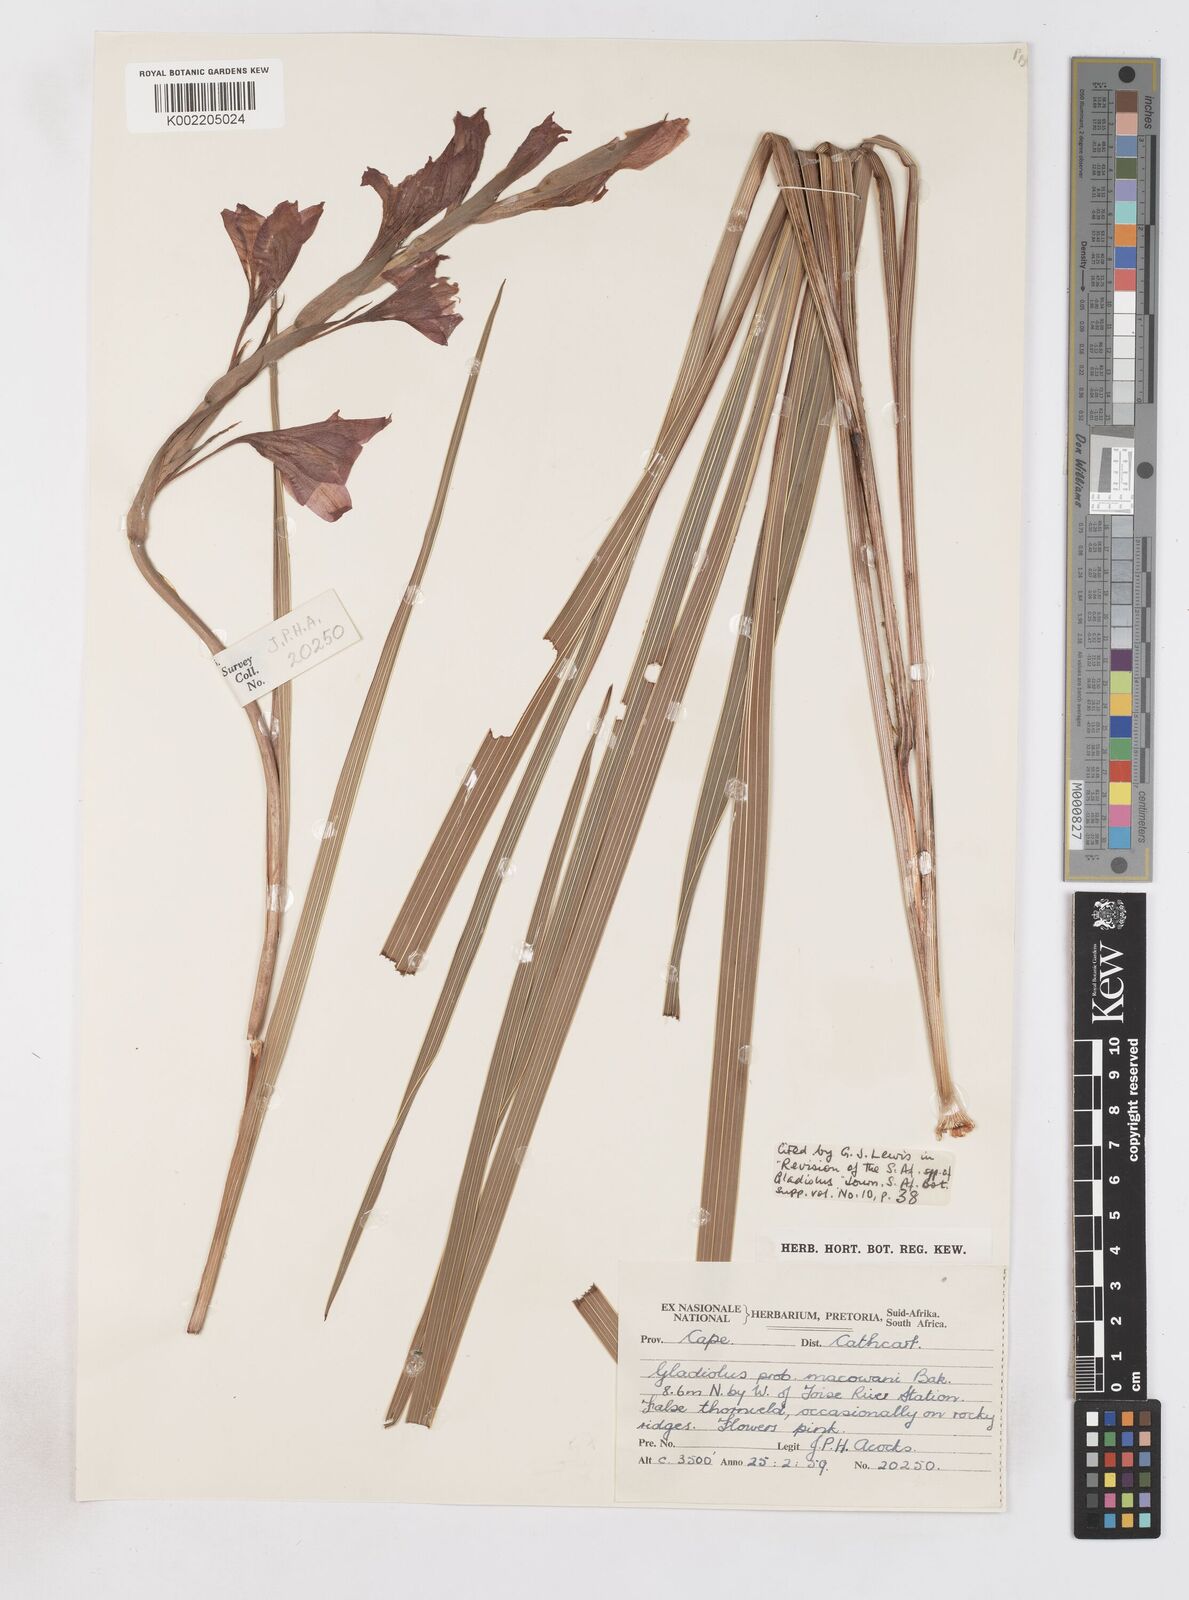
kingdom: Plantae
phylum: Tracheophyta
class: Liliopsida
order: Asparagales
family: Iridaceae
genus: Gladiolus
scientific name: Gladiolus mortonius
